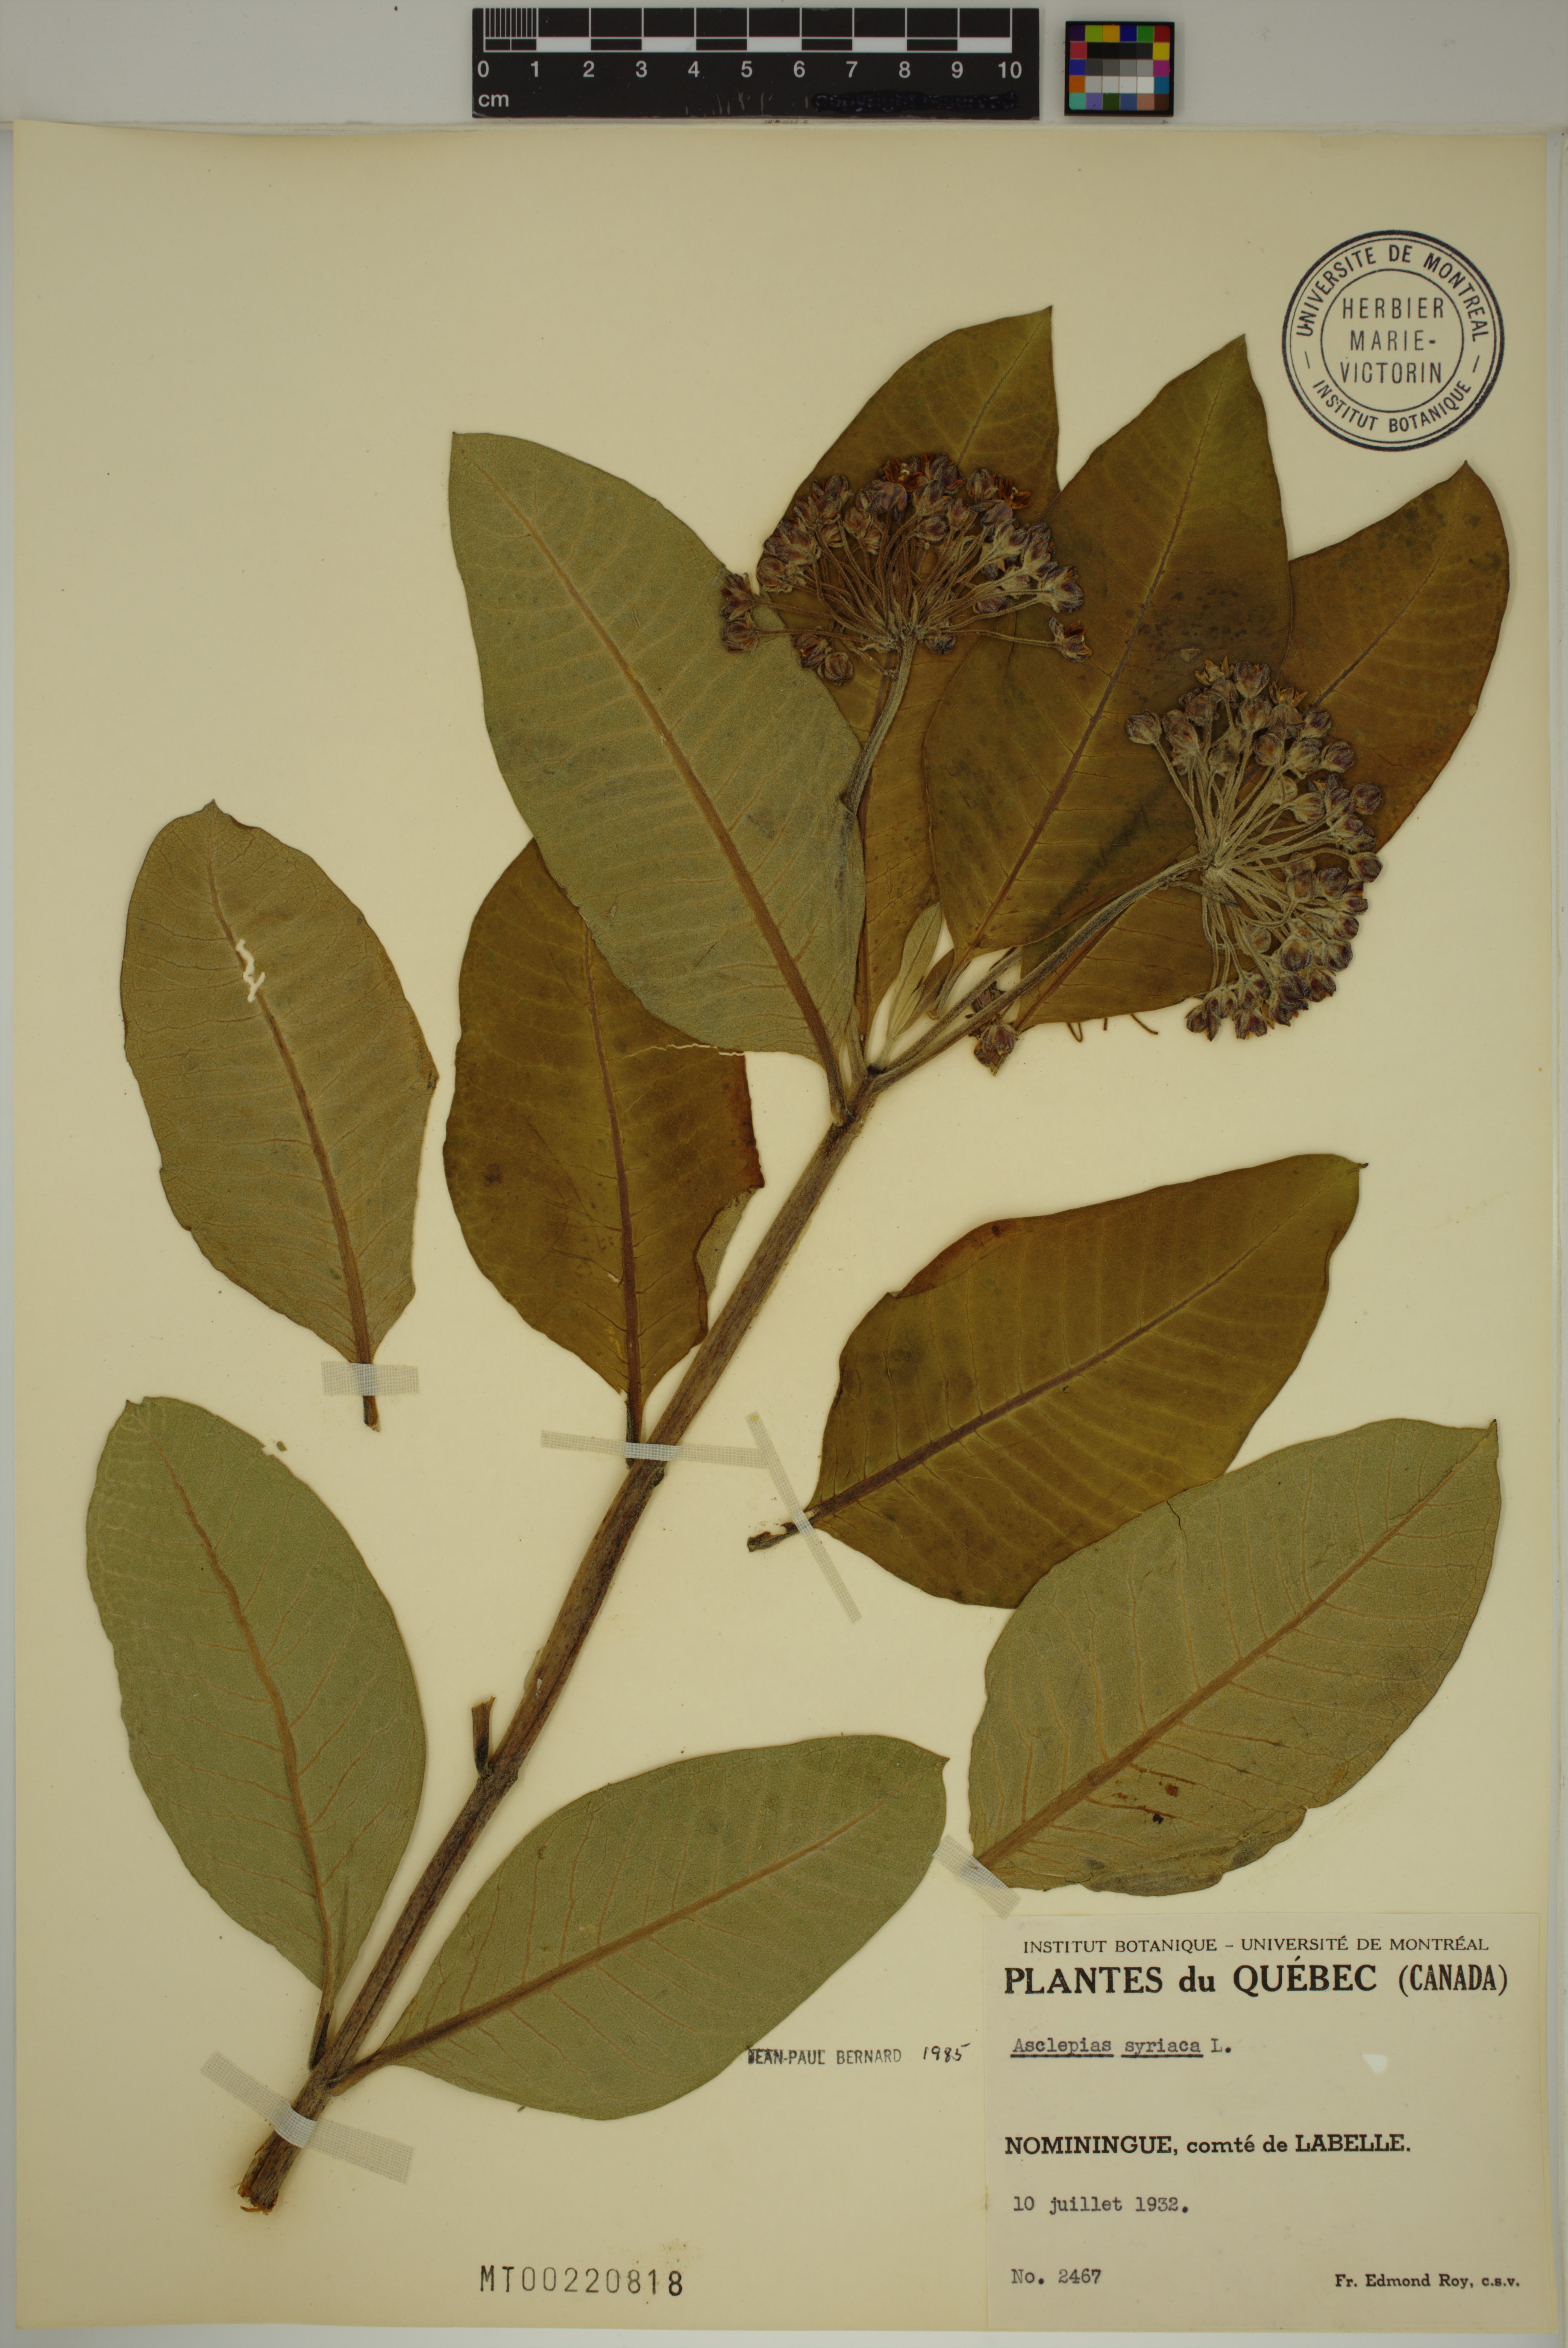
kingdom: Plantae
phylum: Tracheophyta
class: Magnoliopsida
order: Gentianales
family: Apocynaceae
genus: Asclepias
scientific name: Asclepias syriaca
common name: Common milkweed
